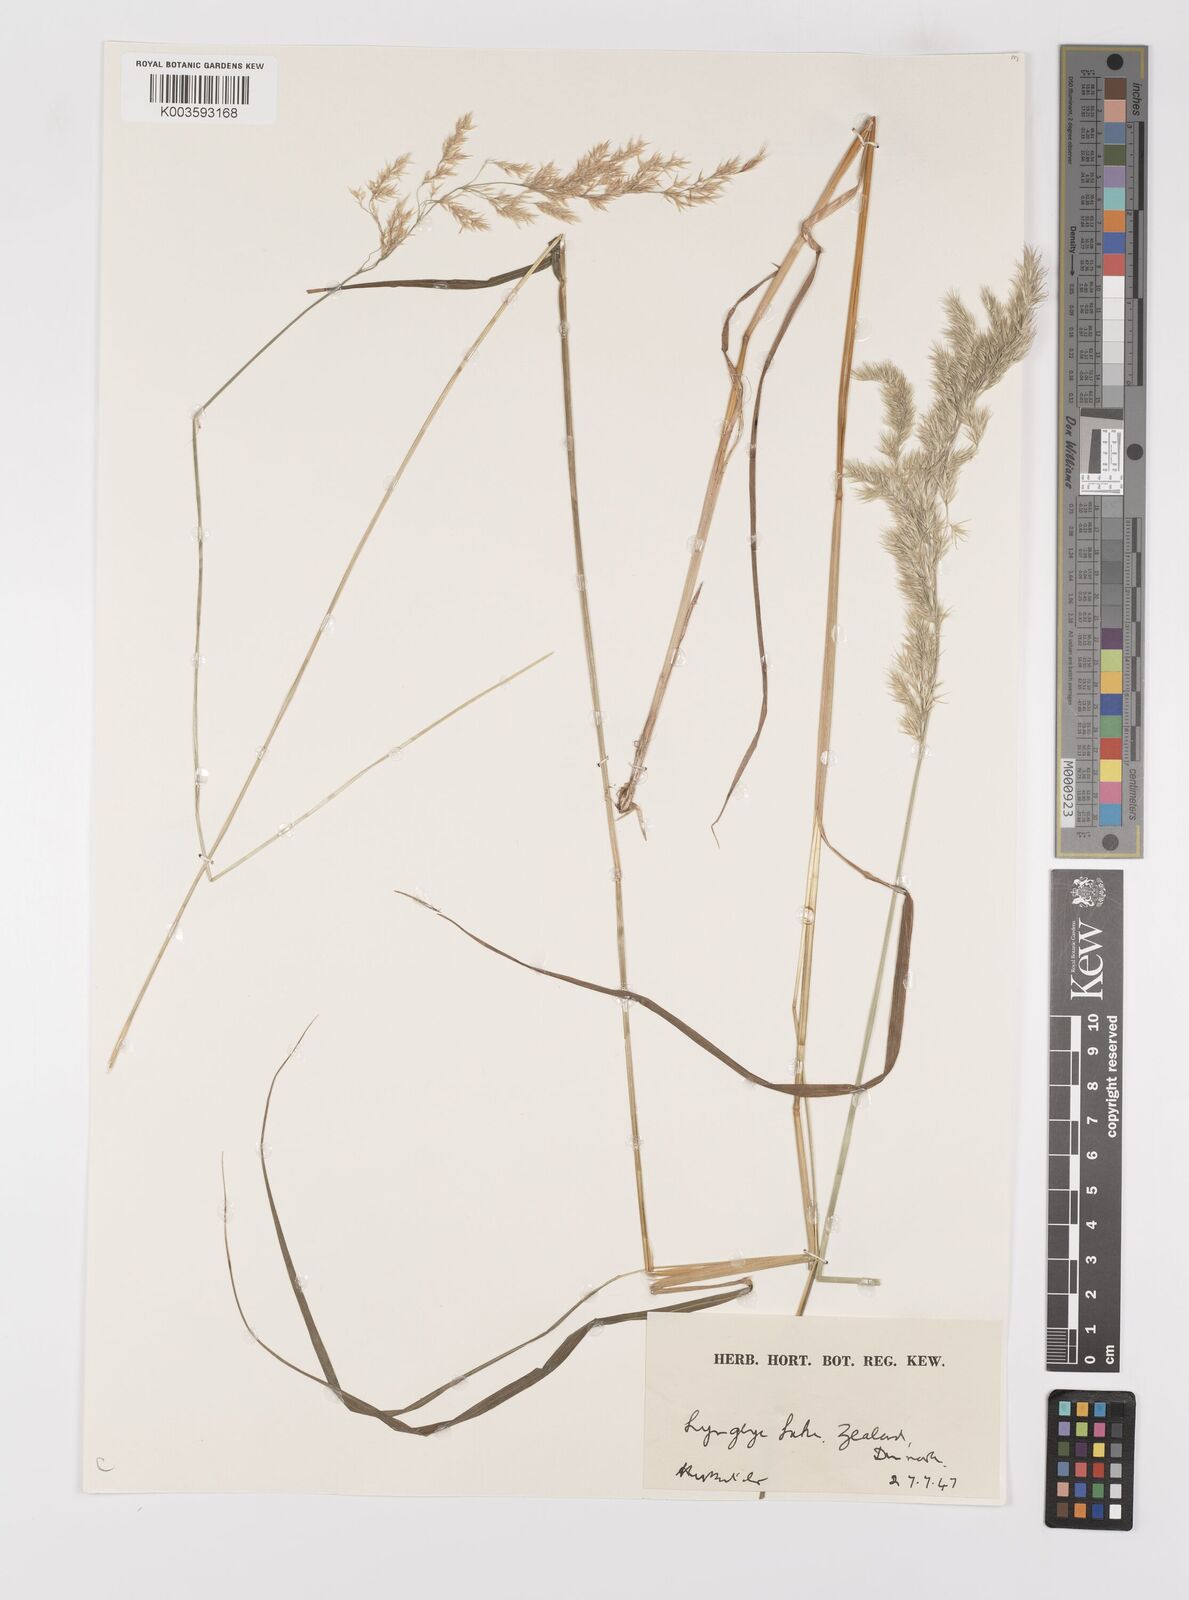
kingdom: Plantae
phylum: Tracheophyta
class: Liliopsida
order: Poales
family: Poaceae
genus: Calamagrostis
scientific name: Calamagrostis
